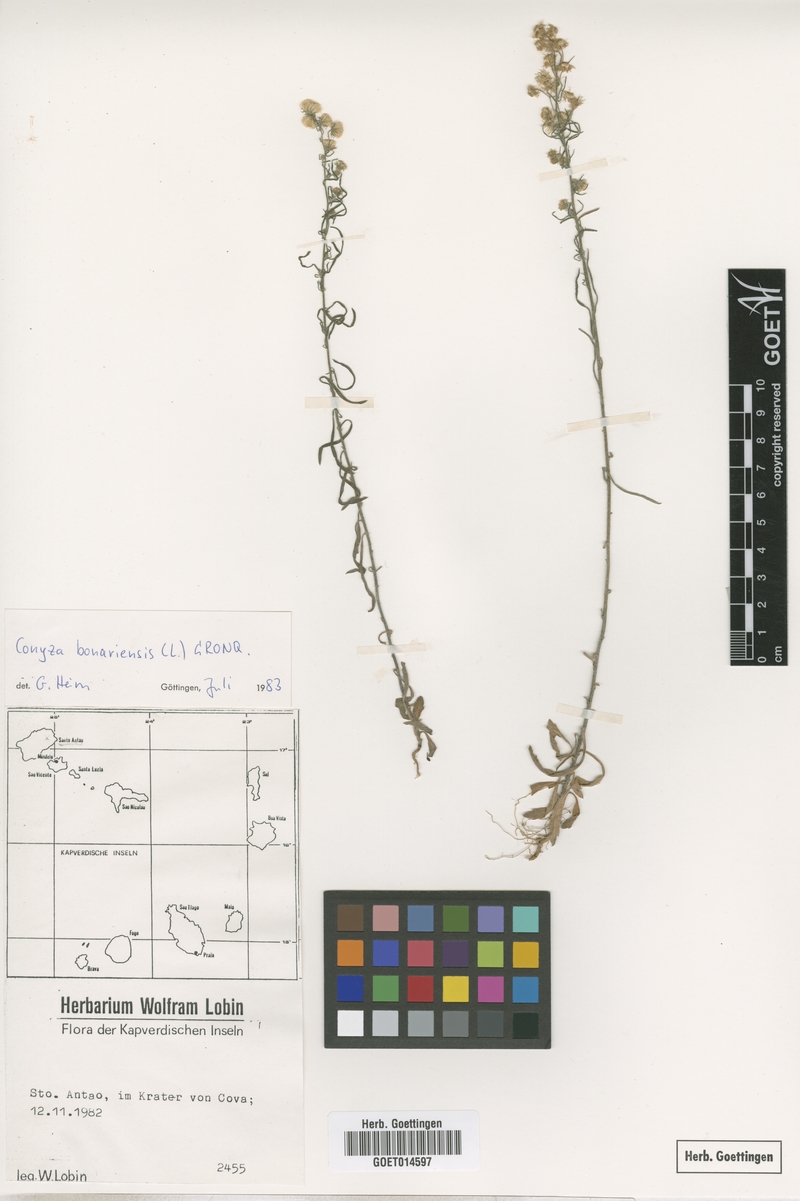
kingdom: Plantae
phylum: Tracheophyta
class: Magnoliopsida
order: Asterales
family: Asteraceae
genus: Erigeron
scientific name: Erigeron bonariensis
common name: Argentine fleabane
